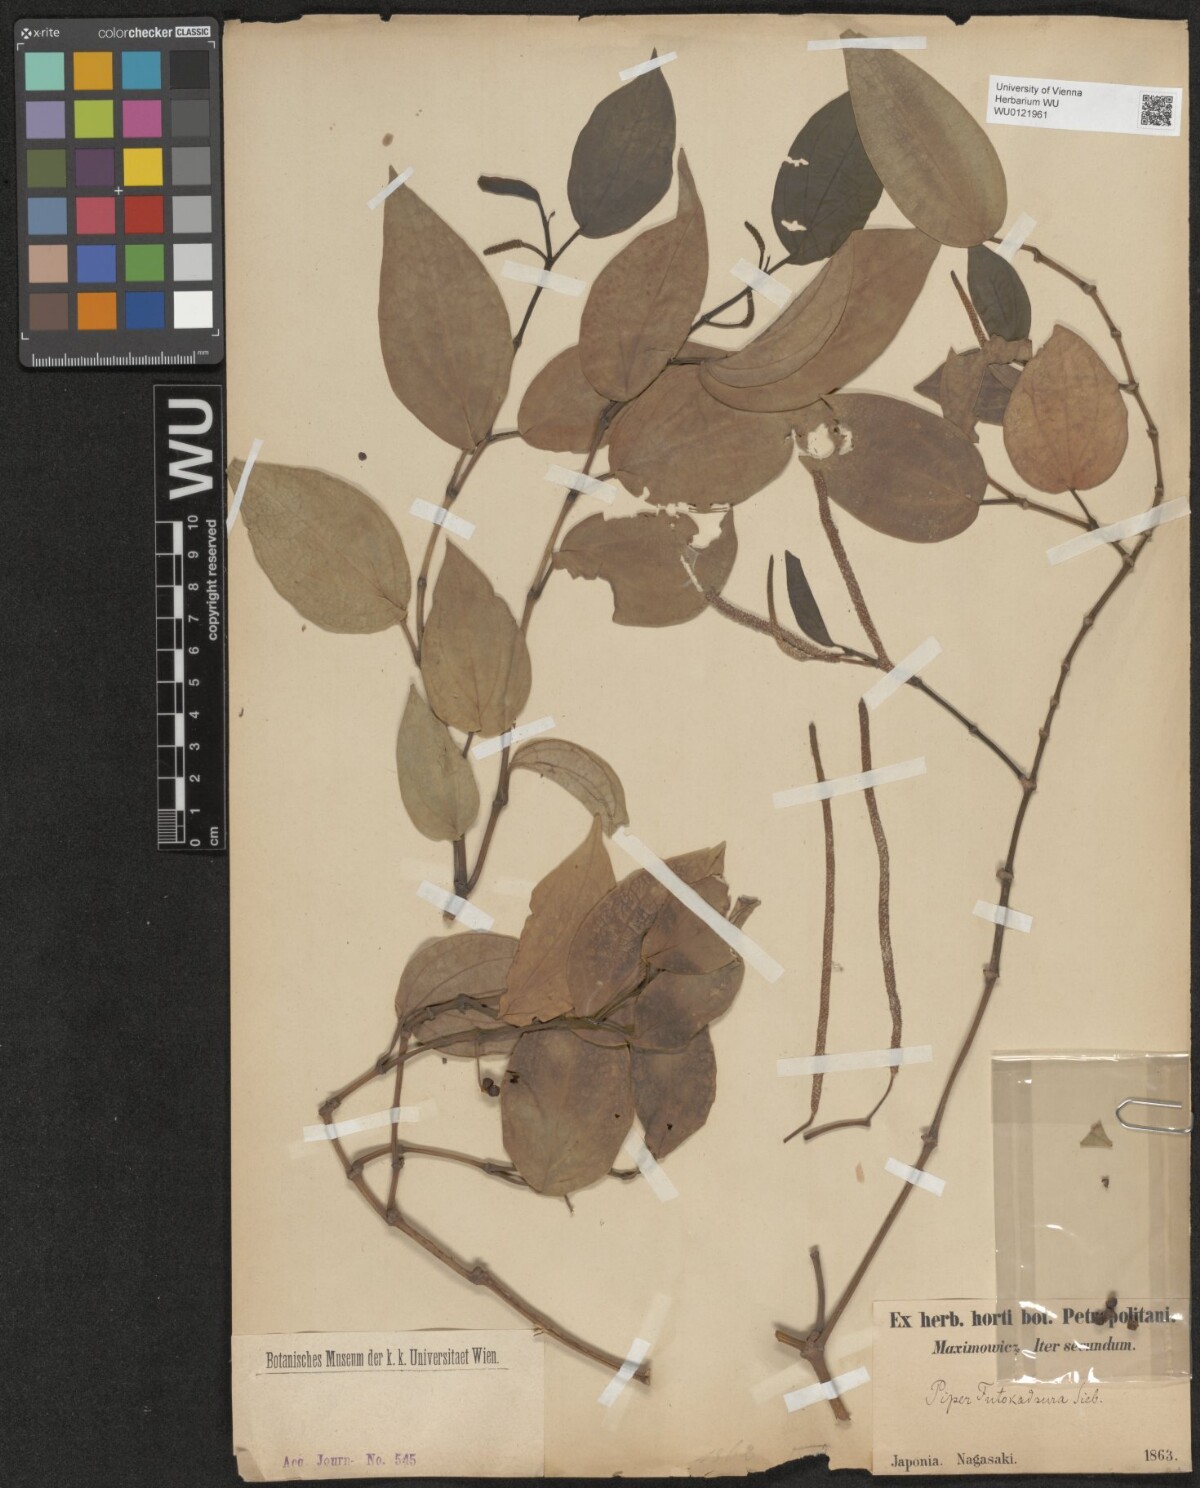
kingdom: Plantae
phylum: Tracheophyta
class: Magnoliopsida
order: Piperales
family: Piperaceae
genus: Piper
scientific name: Piper kadsura
